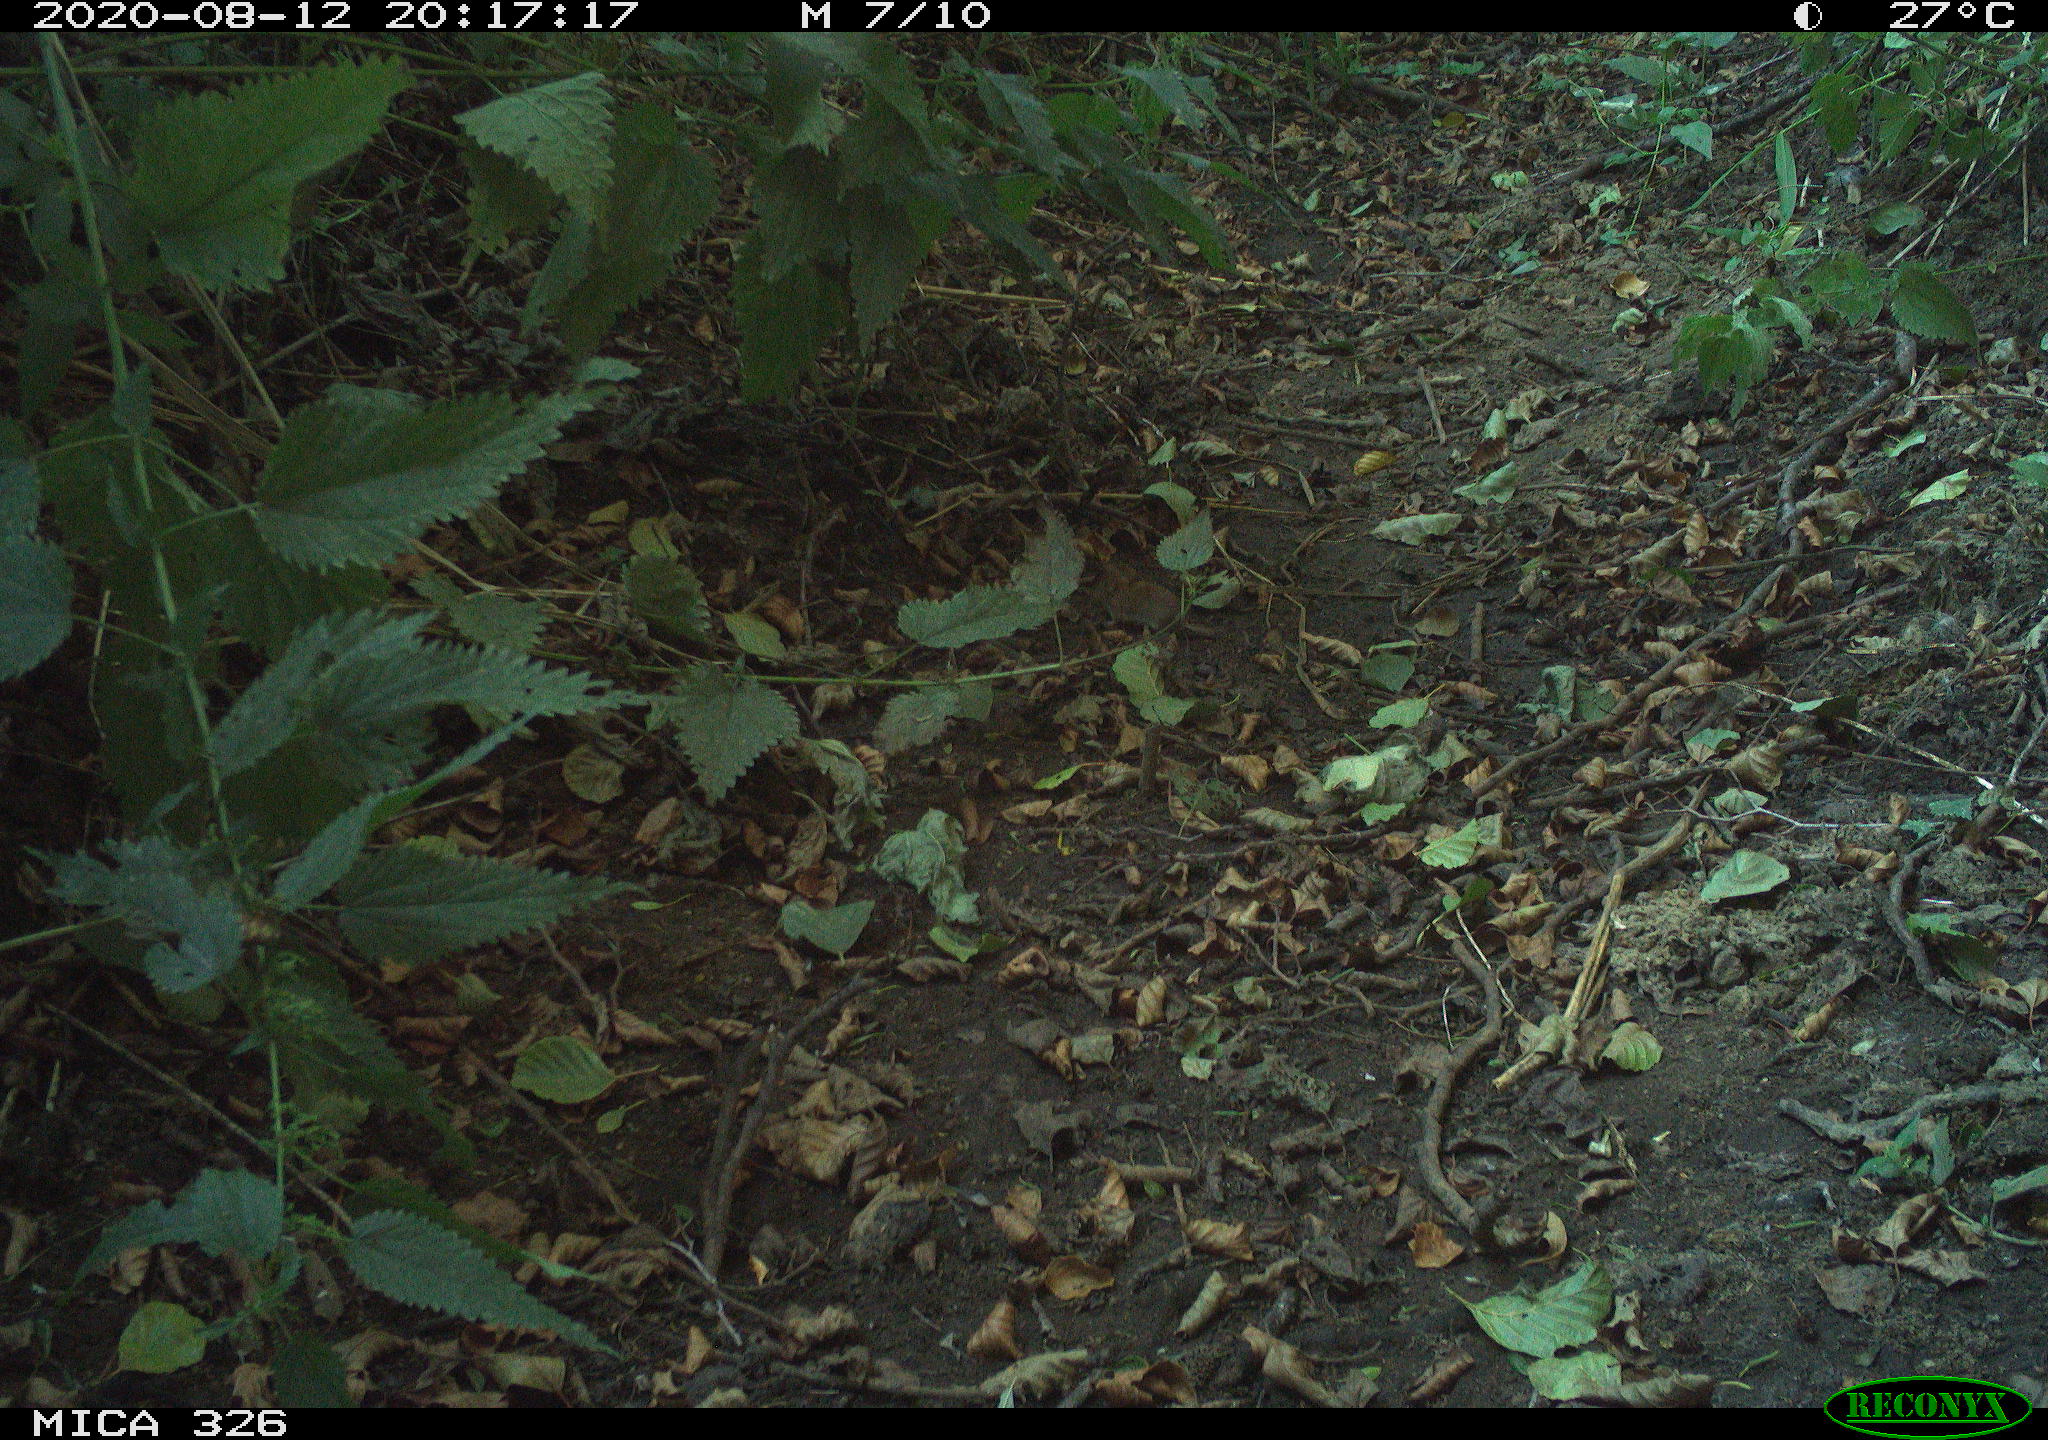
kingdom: Animalia
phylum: Chordata
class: Mammalia
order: Rodentia
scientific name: Rodentia
